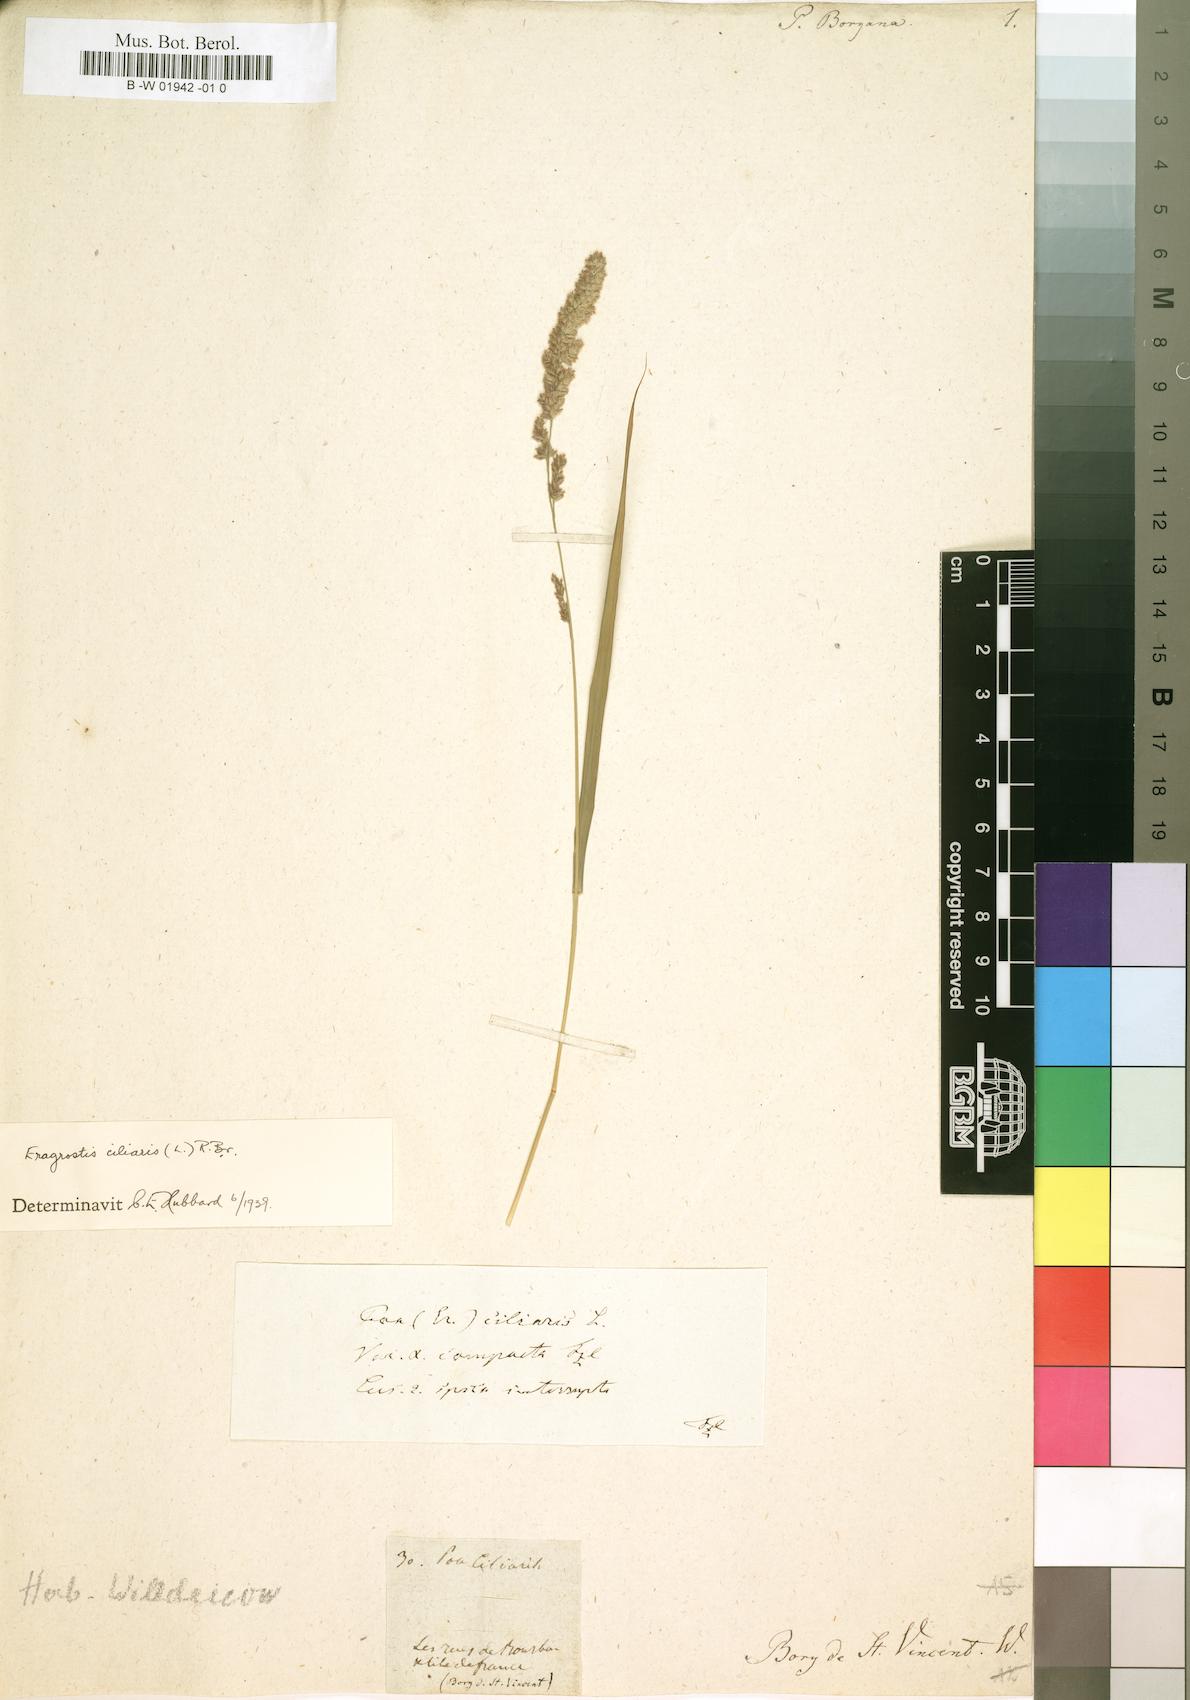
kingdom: Plantae
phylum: Tracheophyta
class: Liliopsida
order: Poales
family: Poaceae
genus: Eragrostis
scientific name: Eragrostis ciliaris
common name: Gophertail lovegrass
